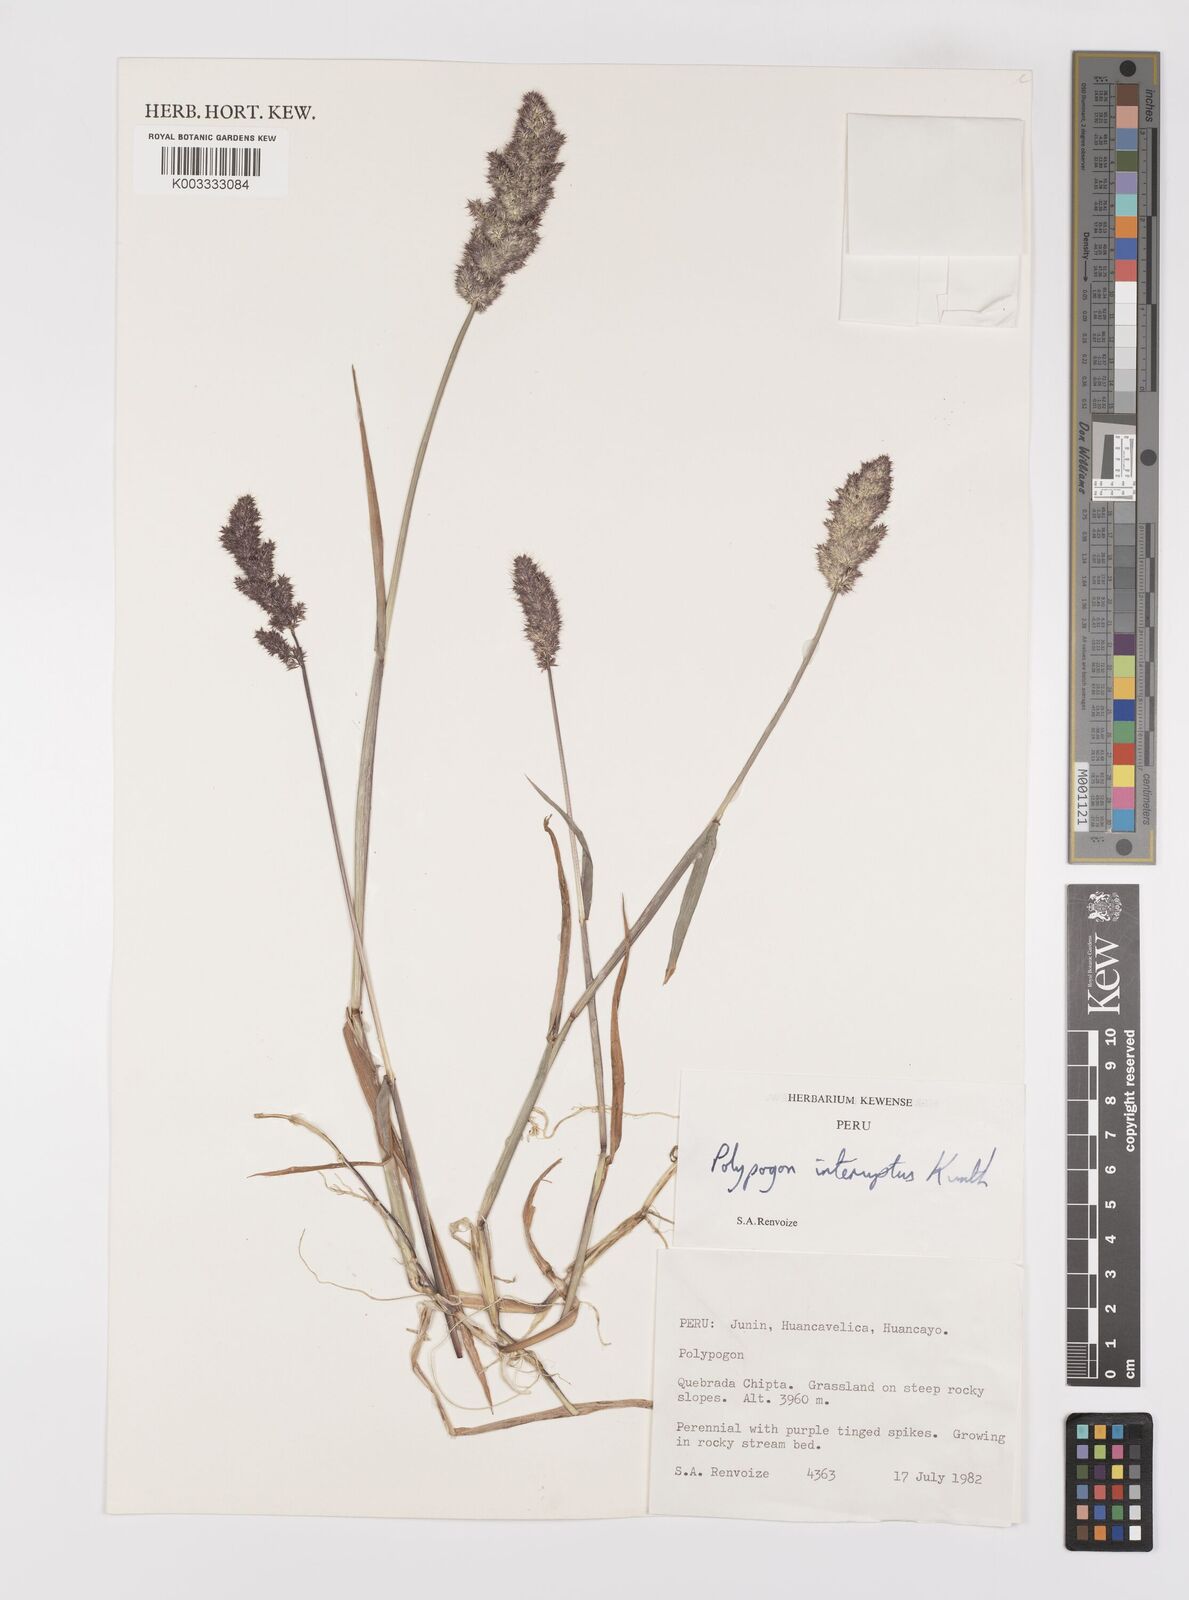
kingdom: Plantae
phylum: Tracheophyta
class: Liliopsida
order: Poales
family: Poaceae
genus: Polypogon
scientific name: Polypogon interruptus
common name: Ditch polypogon
